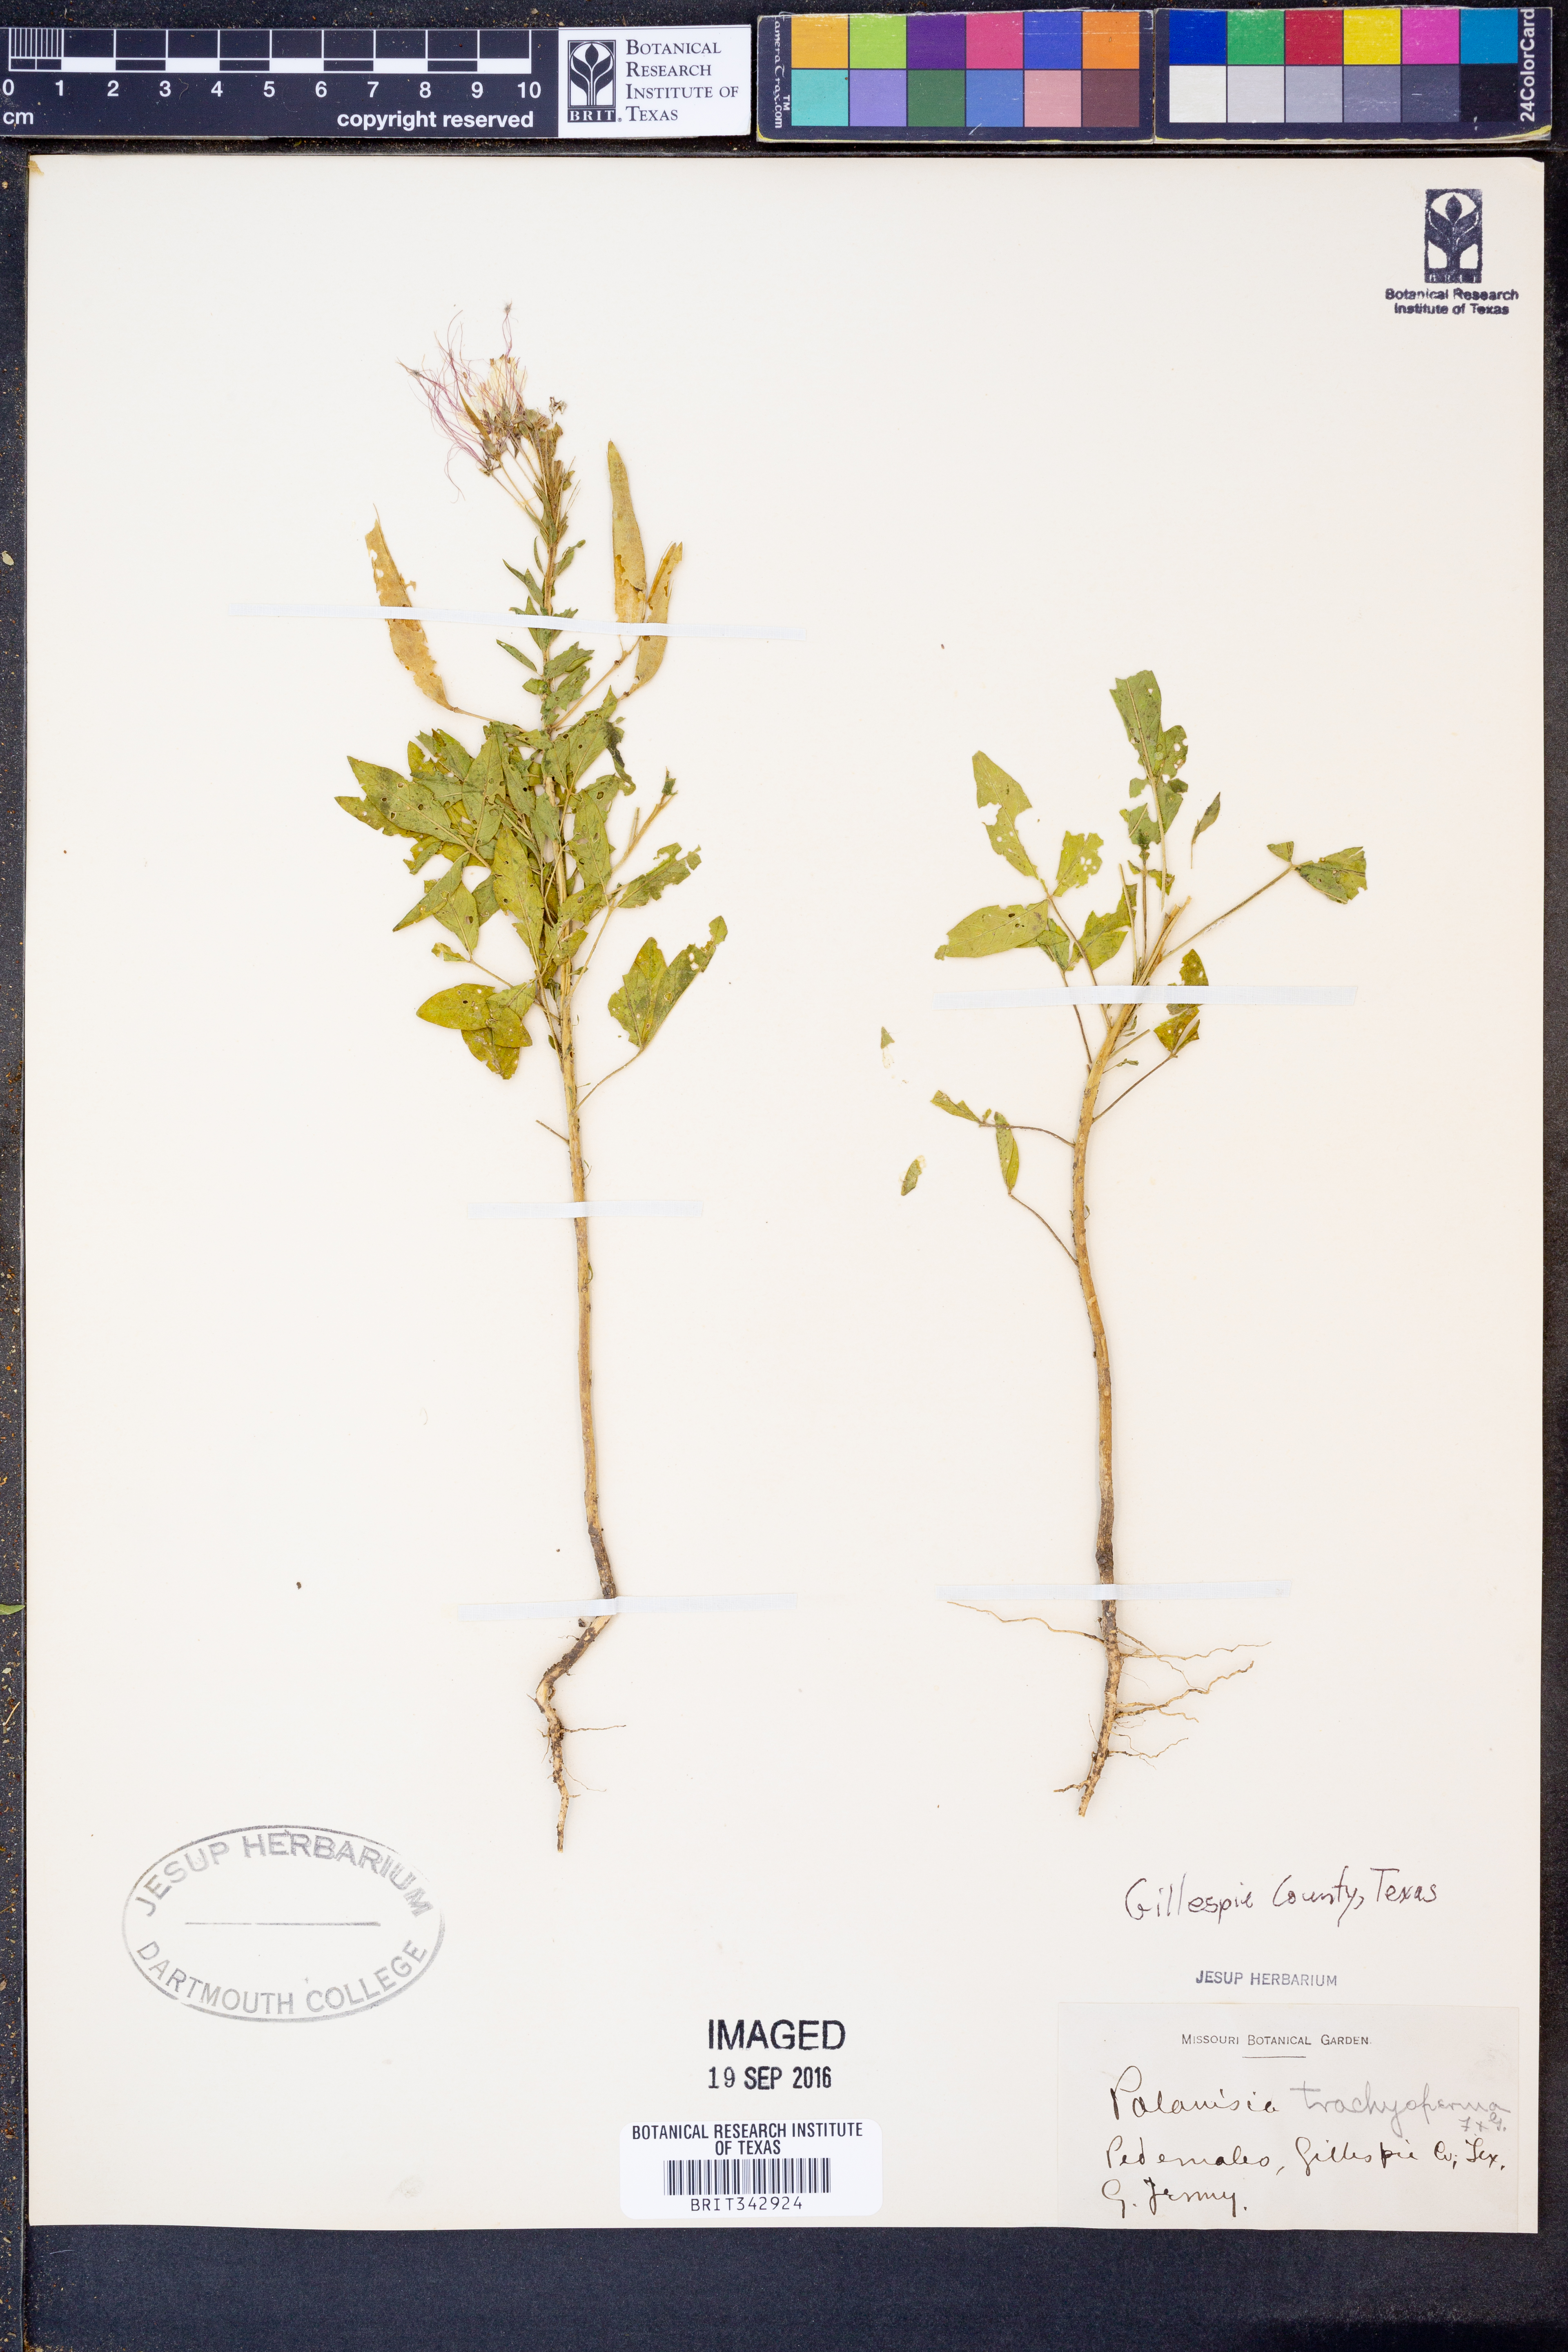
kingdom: Plantae
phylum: Tracheophyta
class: Magnoliopsida
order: Brassicales
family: Cleomaceae
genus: Polanisia
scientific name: Polanisia trachysperma
